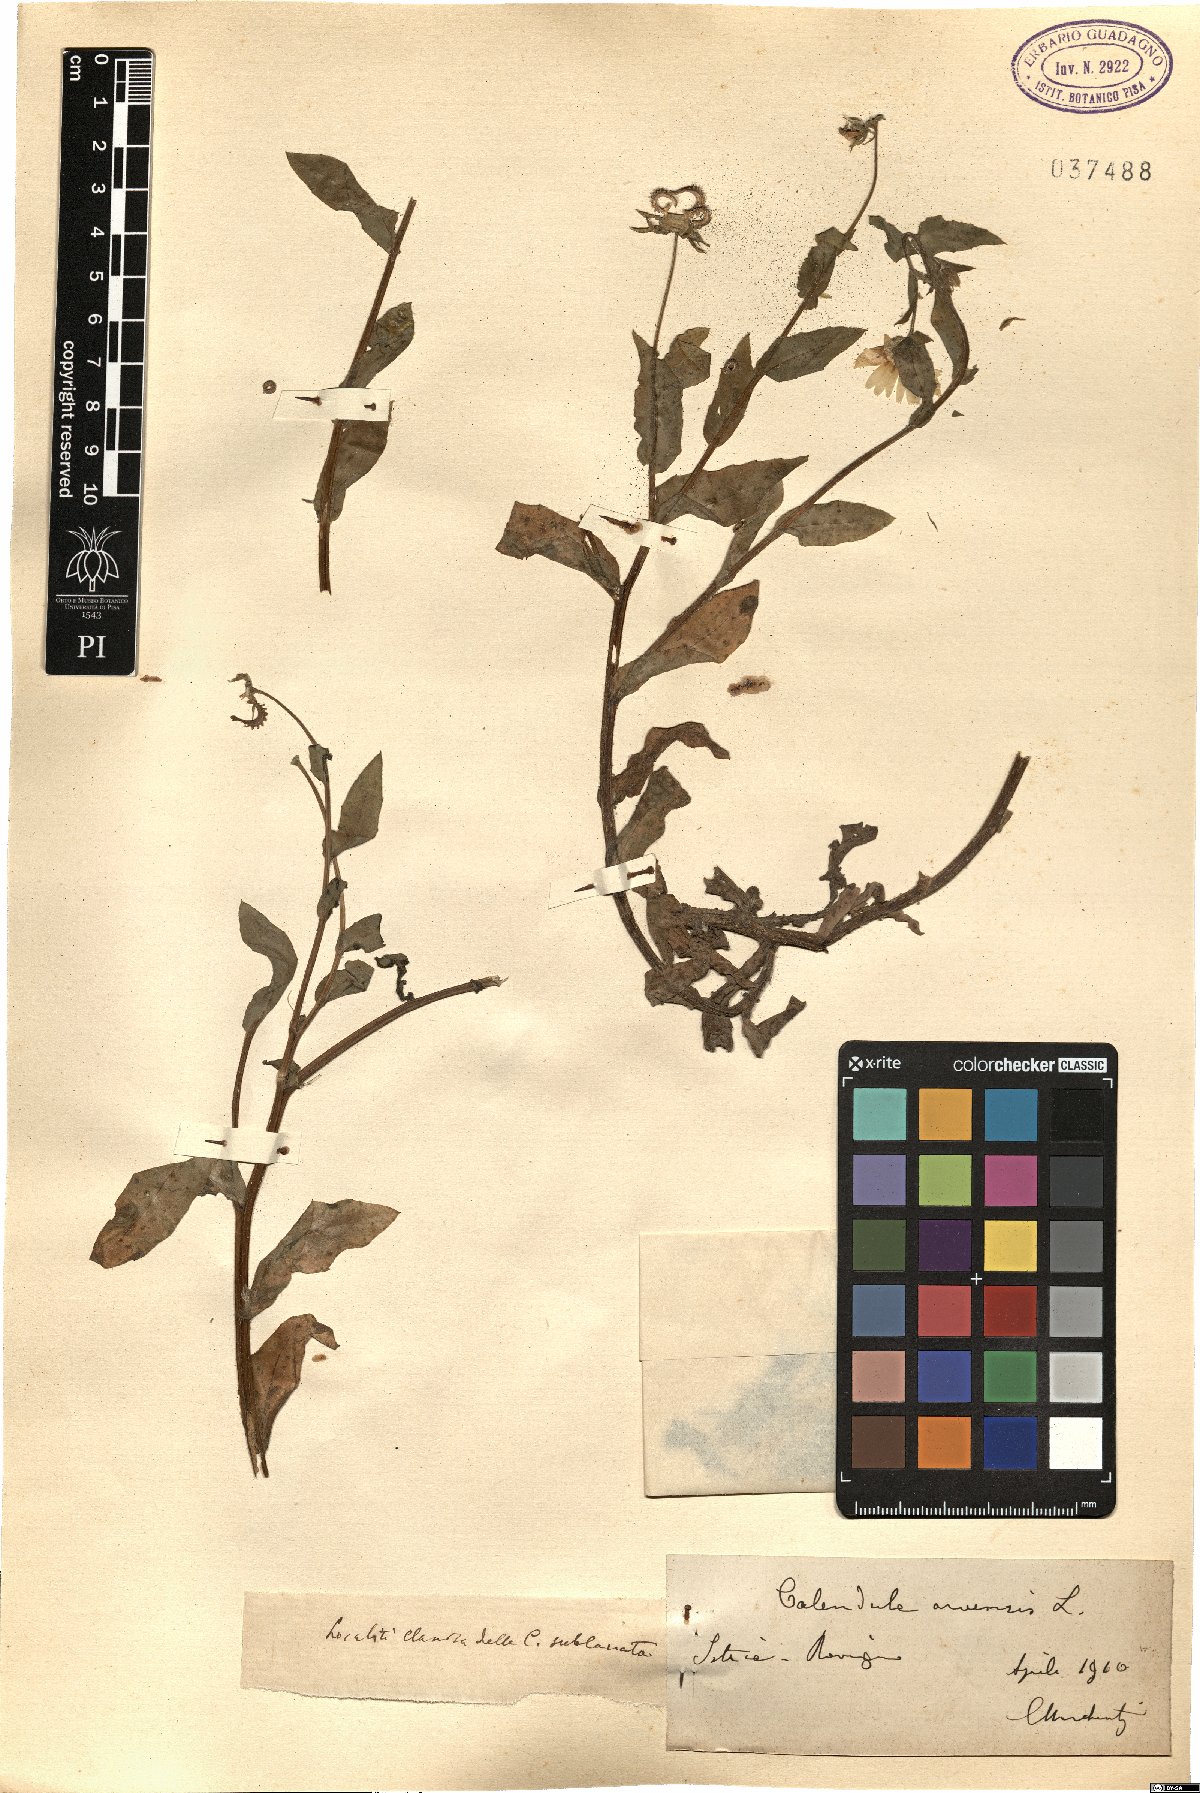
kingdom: Plantae
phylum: Tracheophyta
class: Magnoliopsida
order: Asterales
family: Asteraceae
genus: Calendula
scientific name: Calendula arvensis
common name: Field marigold
